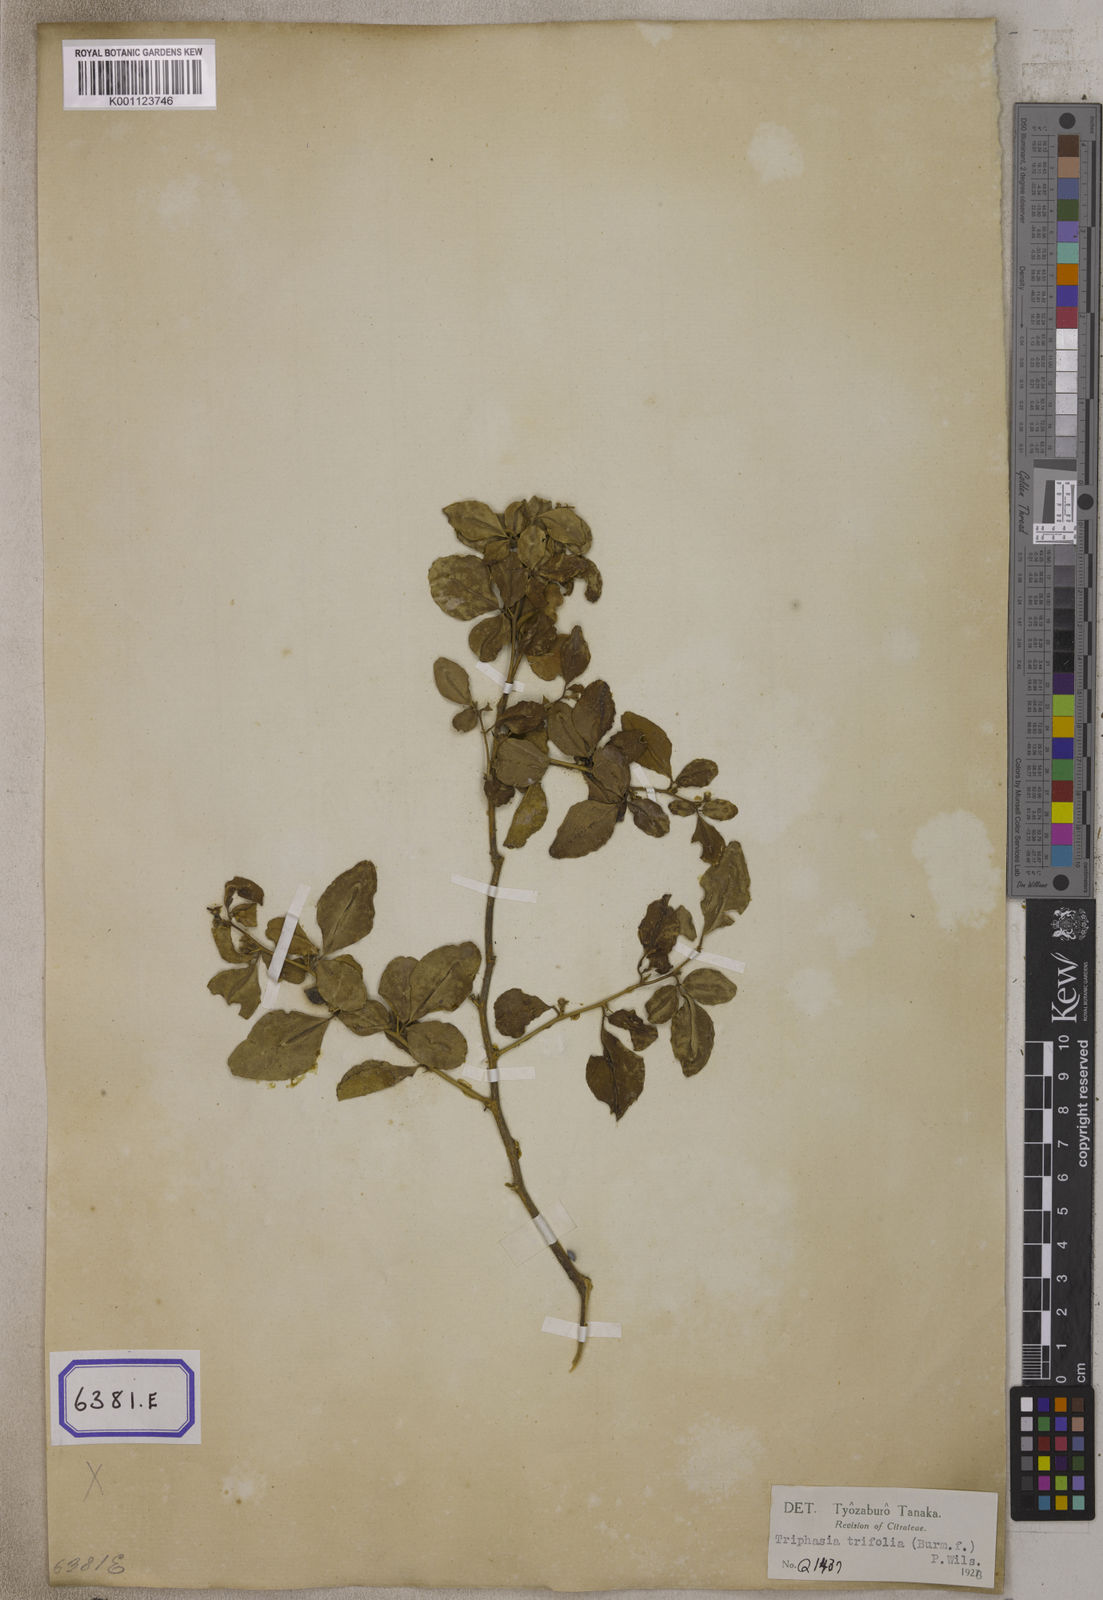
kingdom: Plantae
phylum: Tracheophyta
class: Magnoliopsida
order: Sapindales
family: Rutaceae
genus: Triphasia
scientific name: Triphasia trifolia
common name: Limeberry
